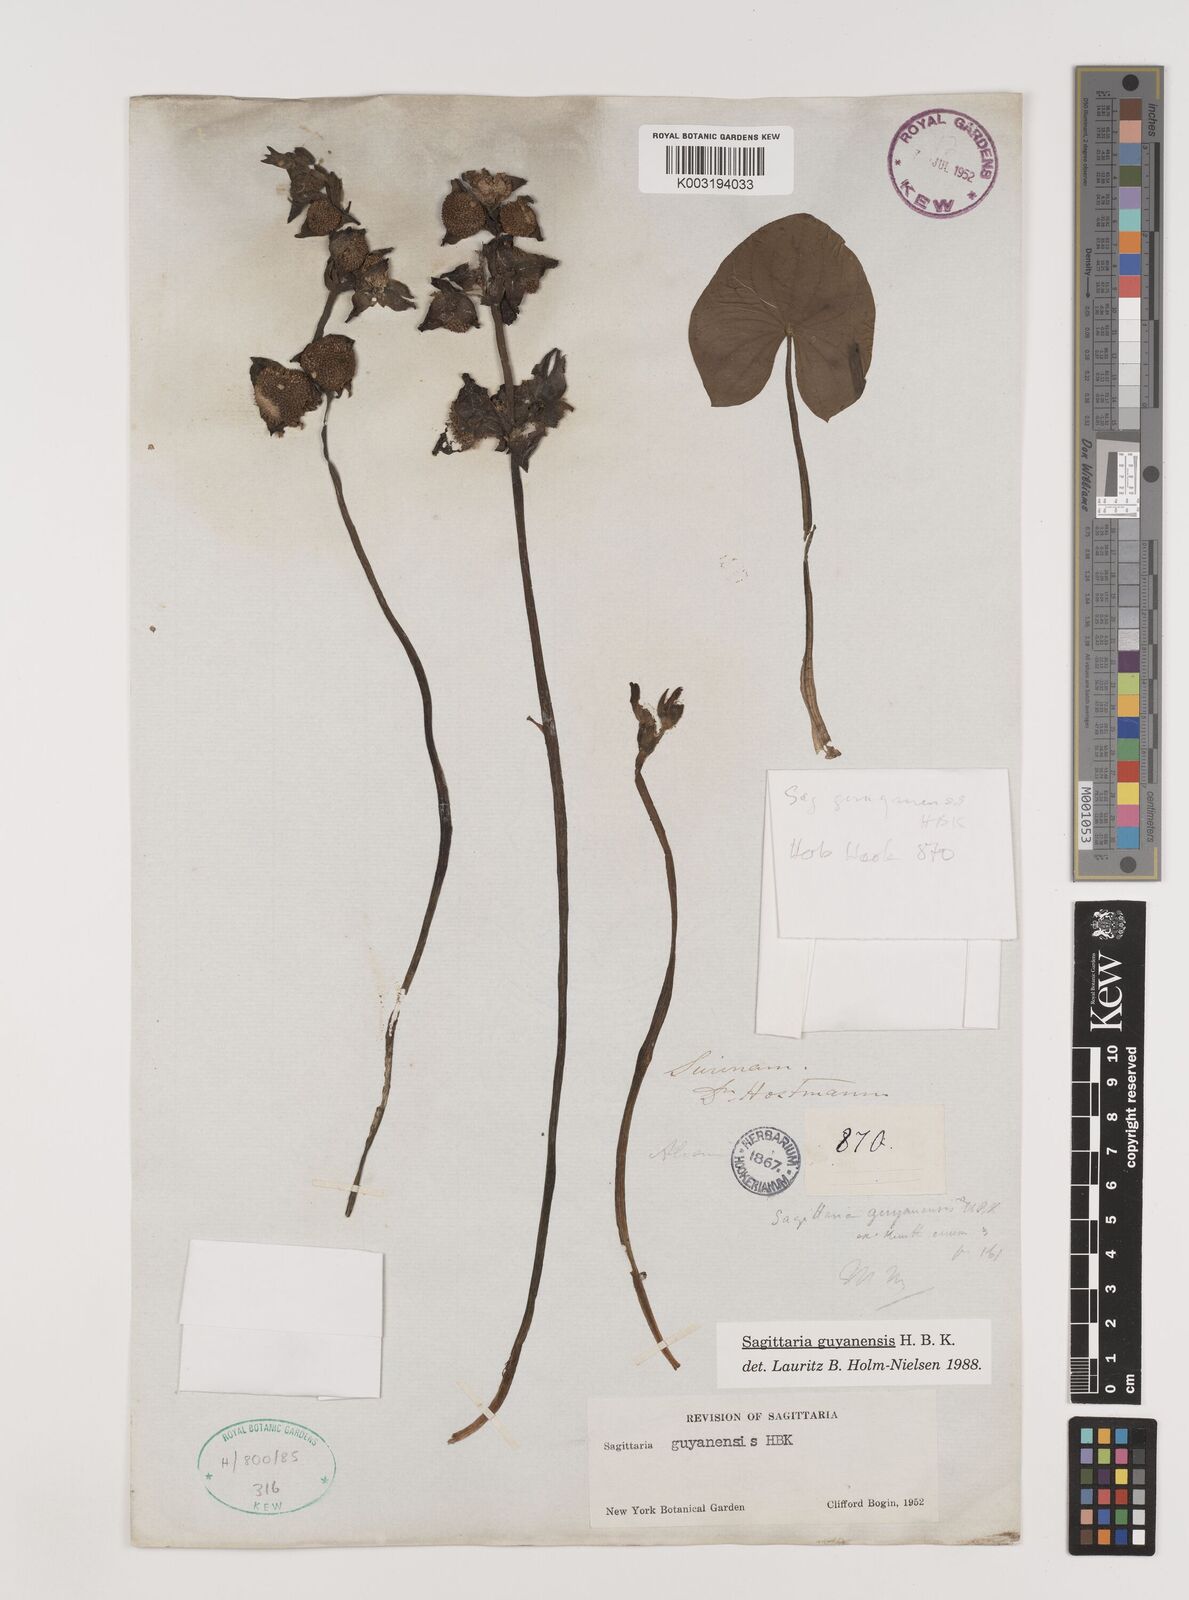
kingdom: Plantae
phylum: Tracheophyta
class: Liliopsida
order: Alismatales
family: Alismataceae
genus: Sagittaria
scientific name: Sagittaria guayanensis
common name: Guyanese arrowhead
